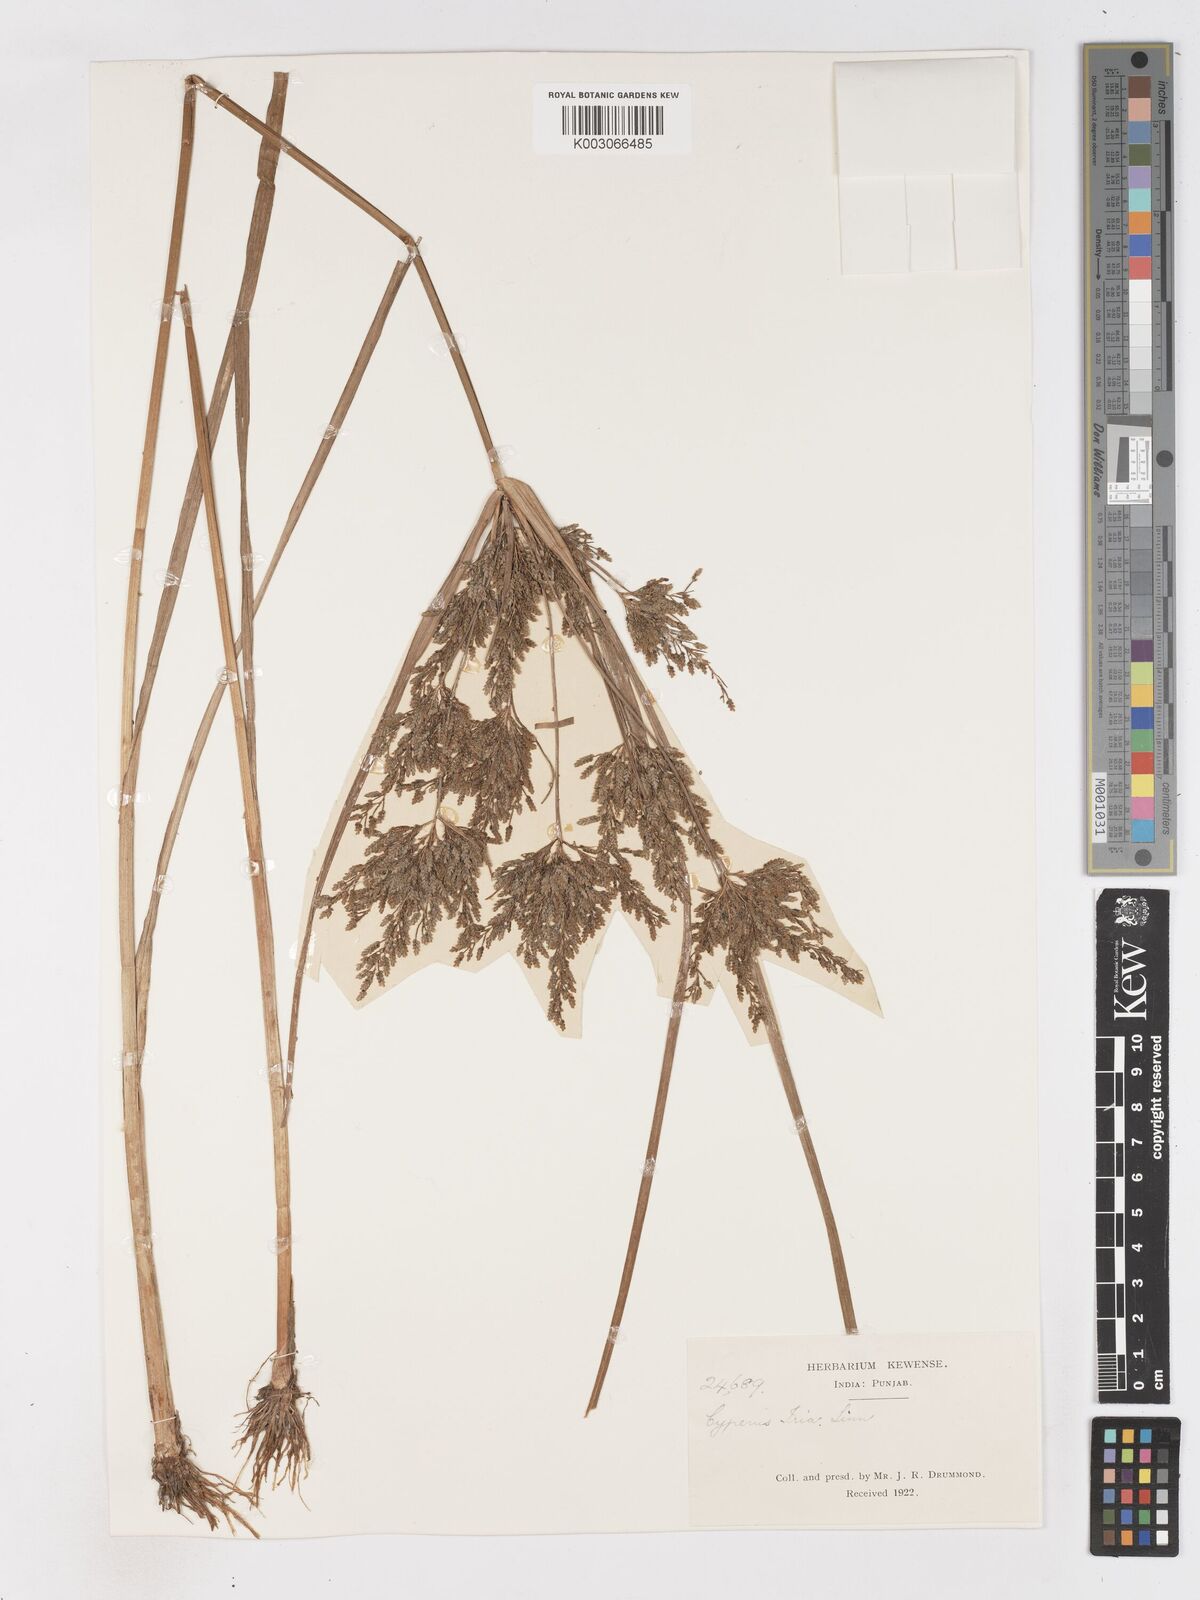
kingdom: Plantae
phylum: Tracheophyta
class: Liliopsida
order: Poales
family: Cyperaceae
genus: Cyperus
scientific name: Cyperus iria
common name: Ricefield flatsedge
